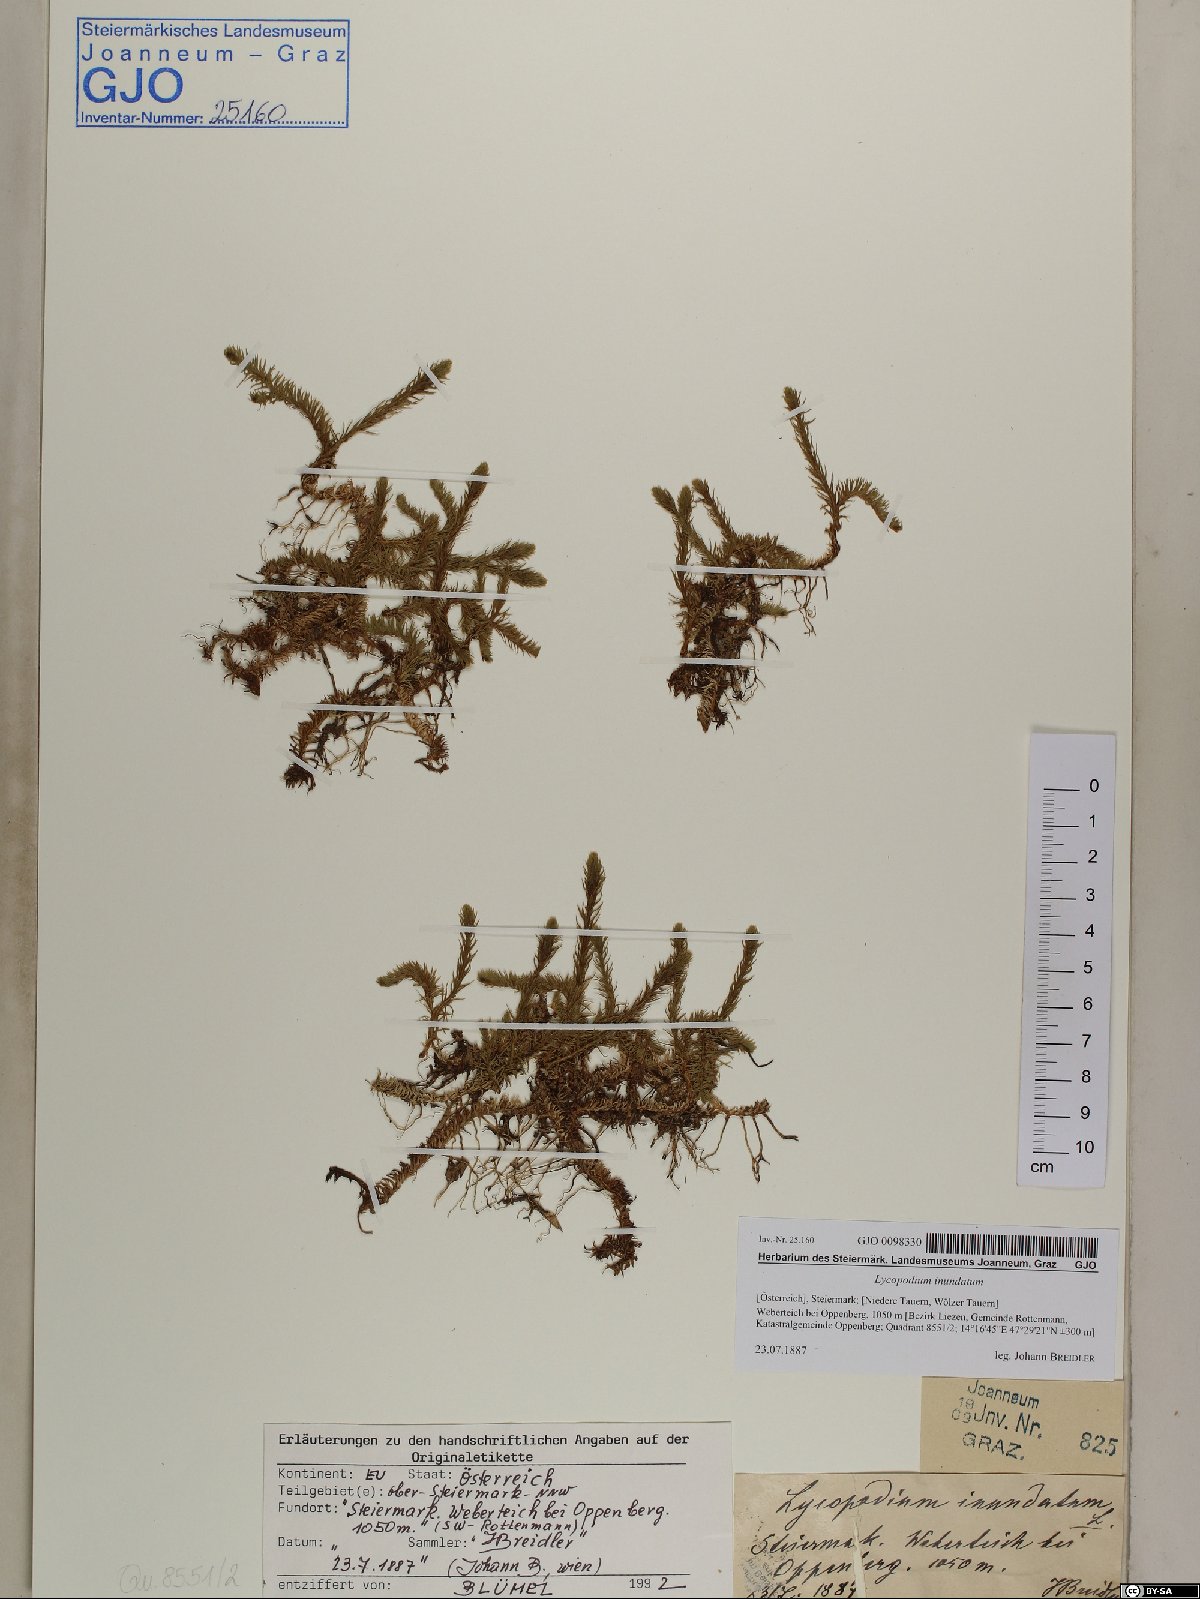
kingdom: Plantae
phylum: Tracheophyta
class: Lycopodiopsida
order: Lycopodiales
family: Lycopodiaceae
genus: Lycopodiella
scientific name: Lycopodiella inundata
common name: Marsh clubmoss
